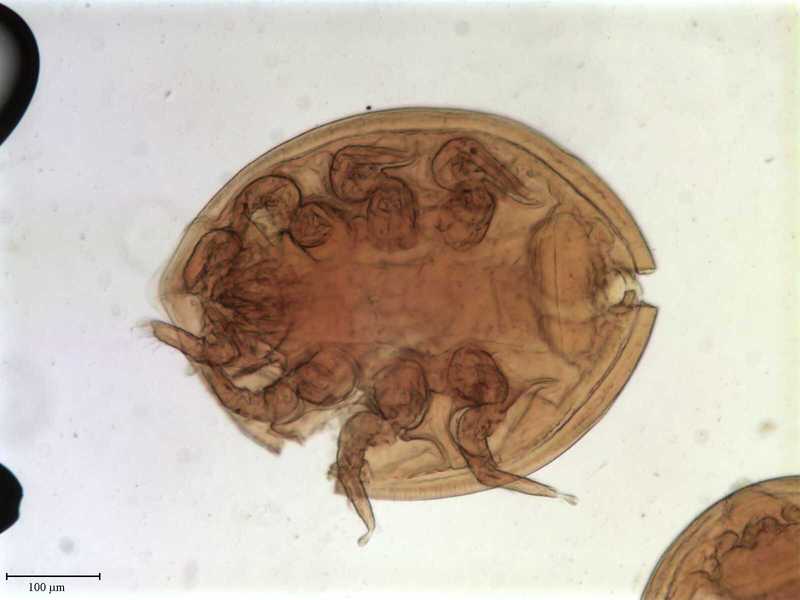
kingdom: Animalia
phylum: Arthropoda
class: Arachnida
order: Mesostigmata
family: Uropodidae
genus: Uropoda
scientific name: Uropoda
